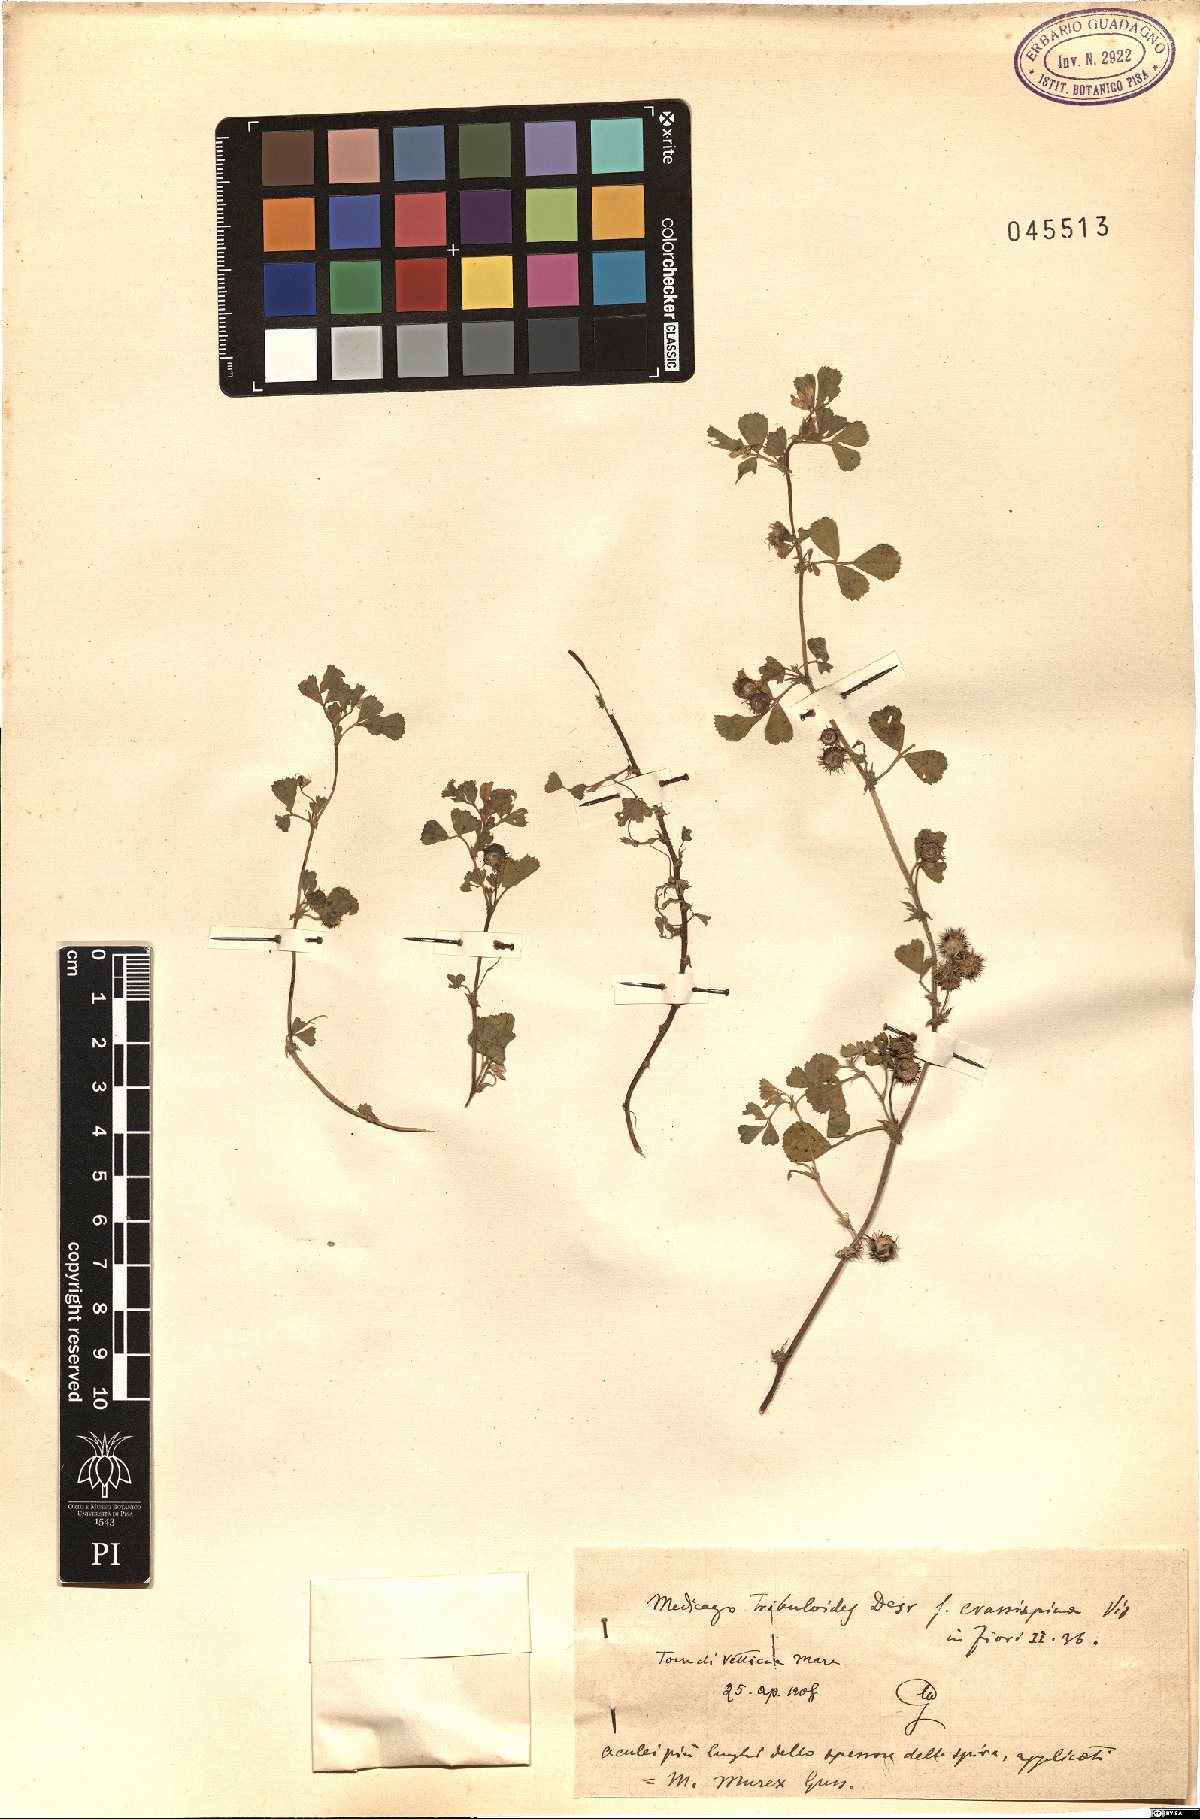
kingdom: Plantae
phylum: Tracheophyta
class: Magnoliopsida
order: Fabales
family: Fabaceae
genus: Medicago
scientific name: Medicago truncatula
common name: Strong-spined medick
